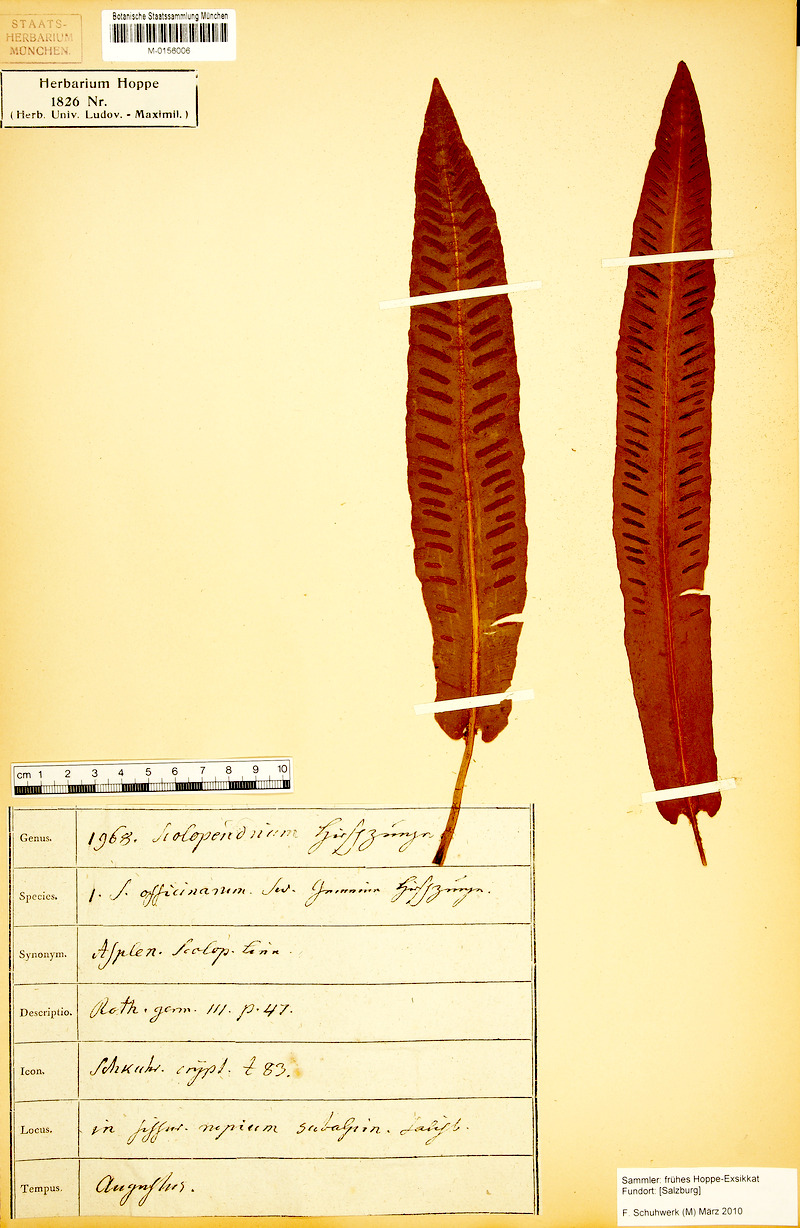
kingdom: Plantae
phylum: Tracheophyta
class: Polypodiopsida
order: Polypodiales
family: Aspleniaceae
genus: Asplenium
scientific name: Asplenium scolopendrium
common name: Hart's-tongue fern
